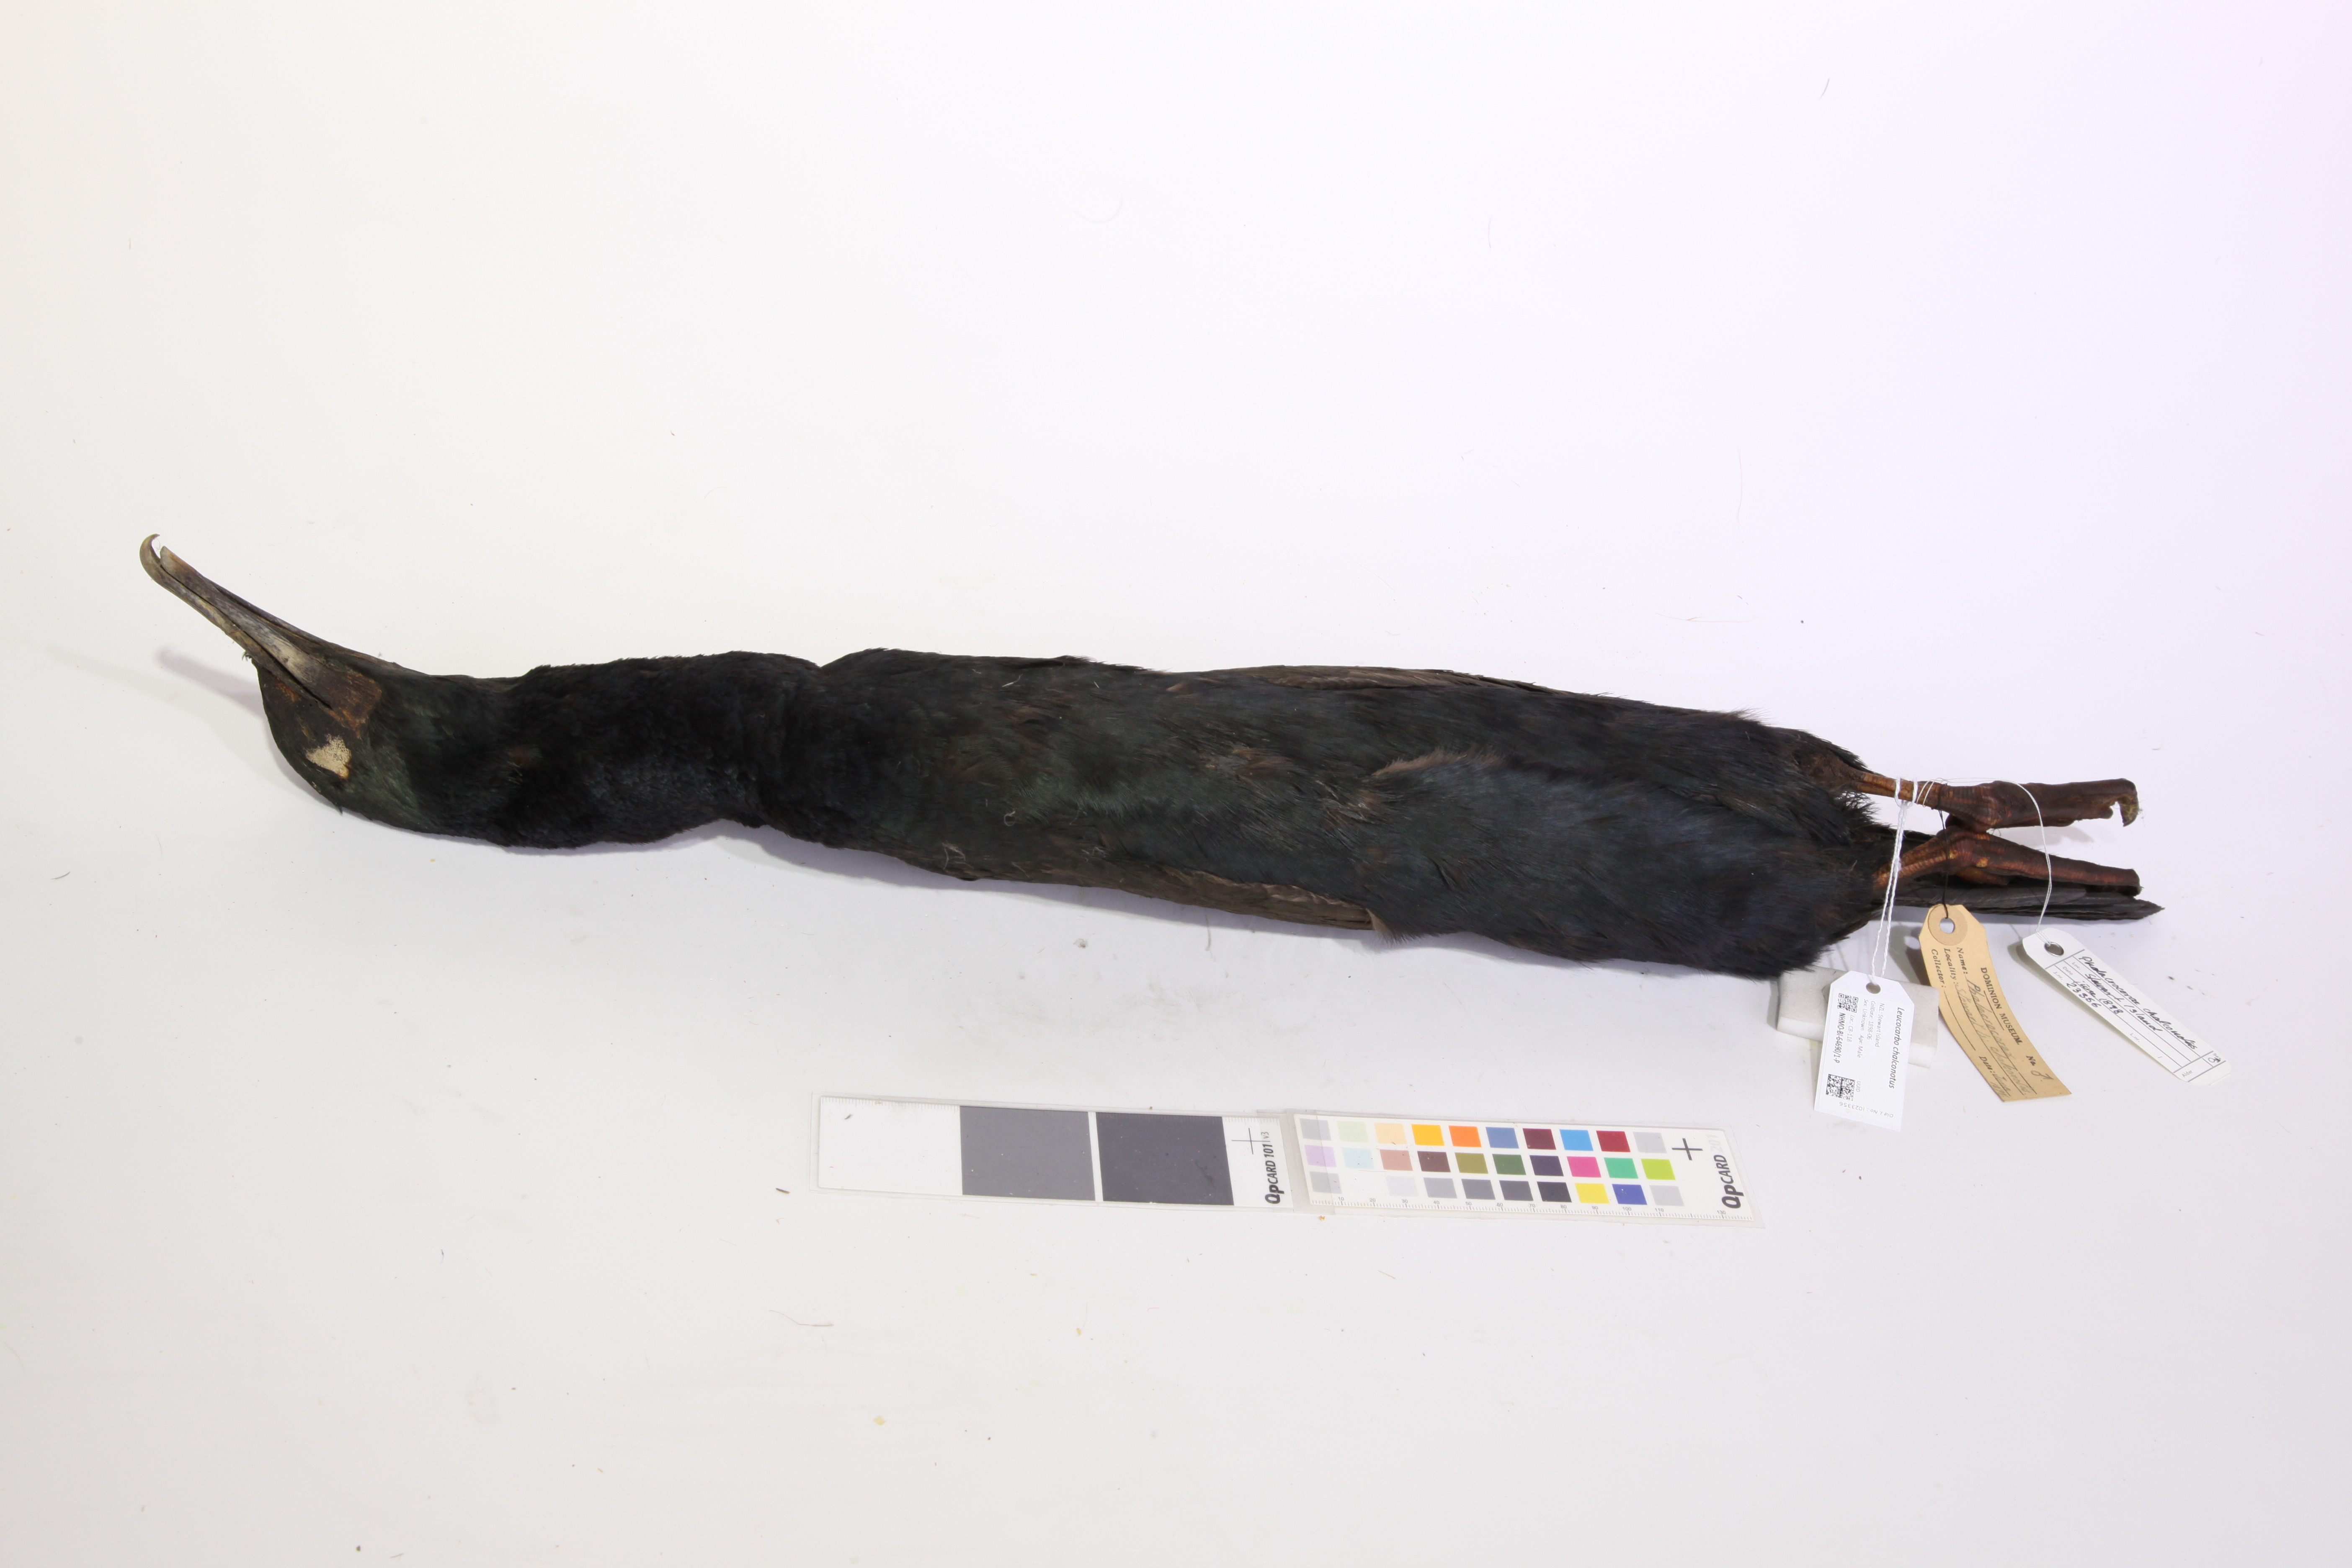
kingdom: Animalia
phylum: Chordata
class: Aves
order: Suliformes
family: Phalacrocoracidae
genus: Leucocarbo
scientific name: Leucocarbo chalconotus
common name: Stewart shag
